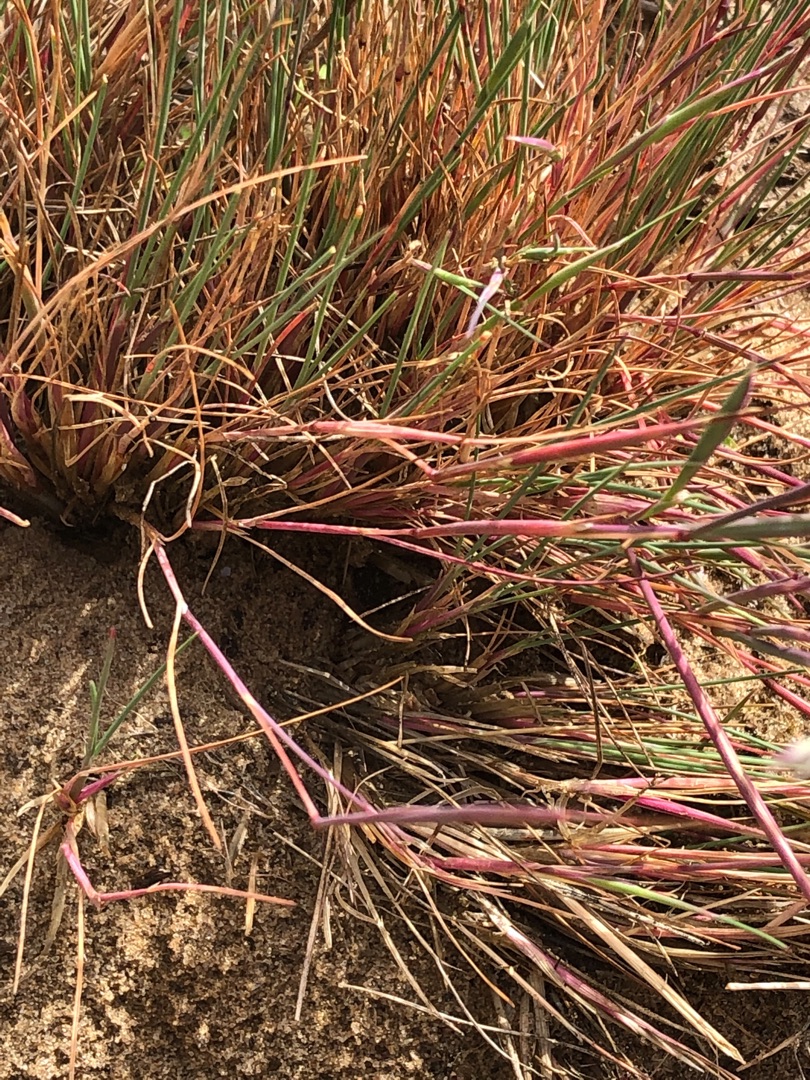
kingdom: Plantae
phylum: Tracheophyta
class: Liliopsida
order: Poales
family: Poaceae
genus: Corynephorus
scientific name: Corynephorus canescens
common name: Sandskæg
